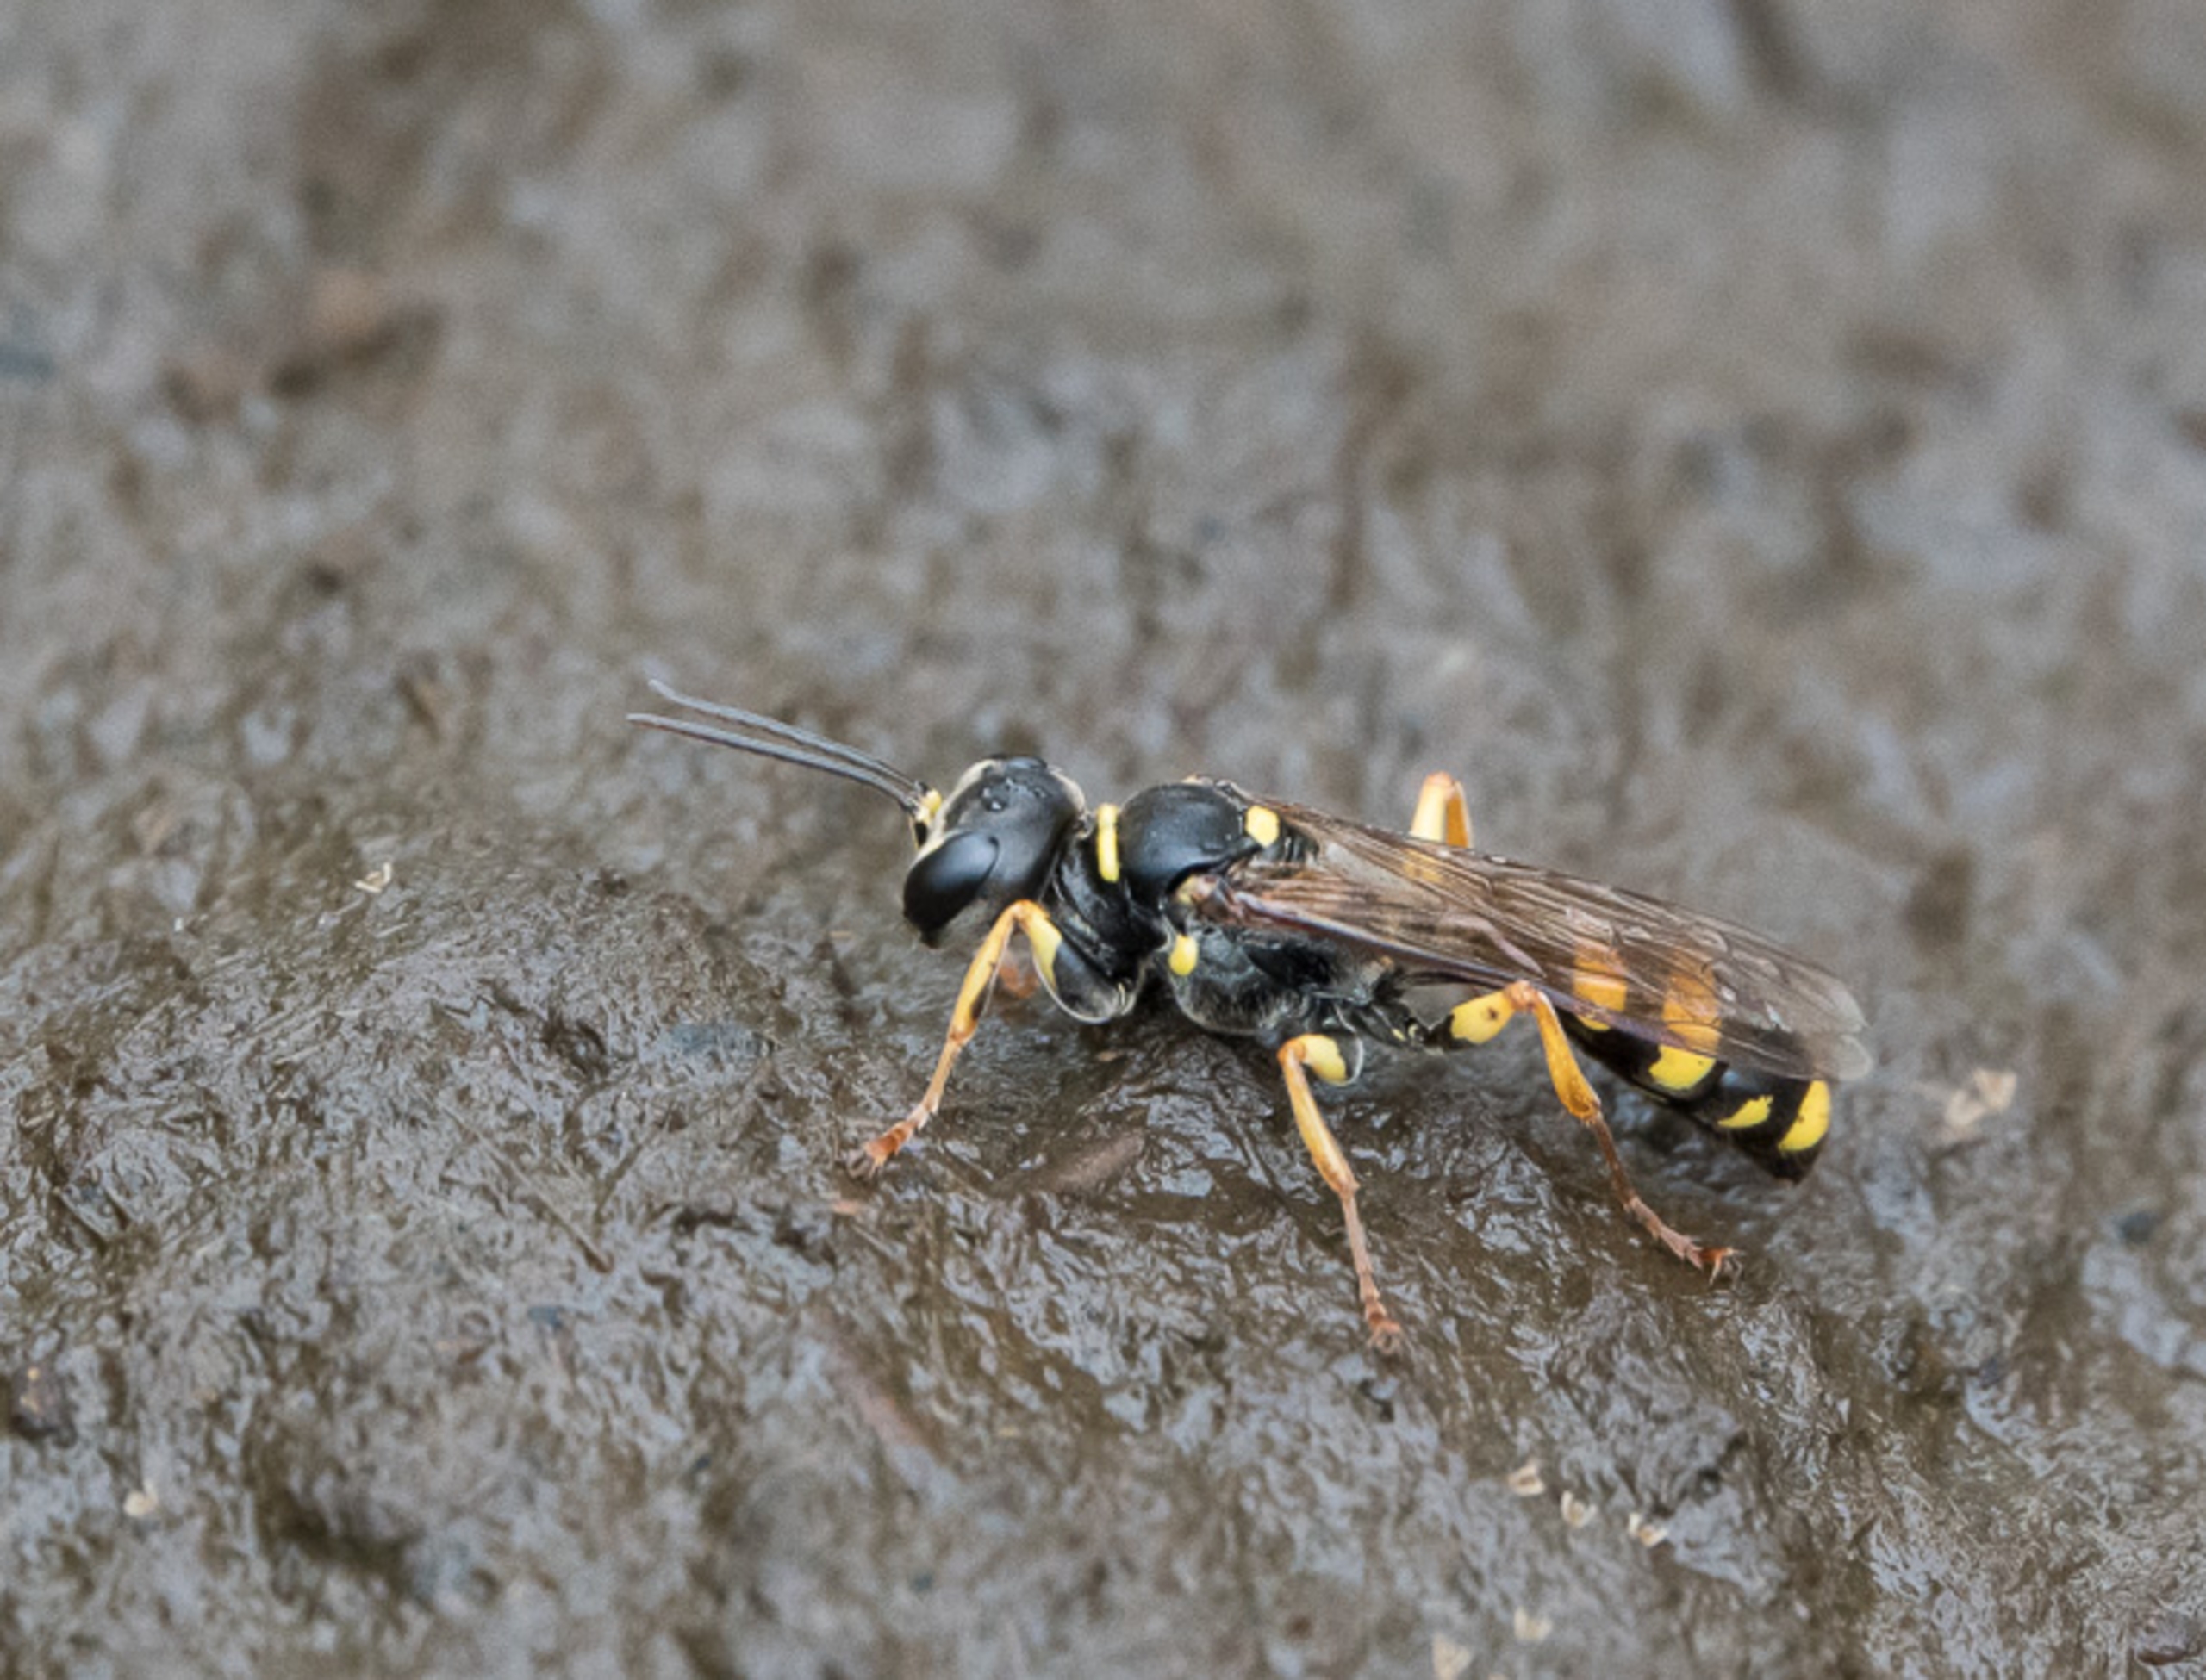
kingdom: Animalia
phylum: Arthropoda
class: Insecta
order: Hymenoptera
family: Crabronidae
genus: Mellinus
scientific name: Mellinus arvensis
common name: Efterårsgravehveps
